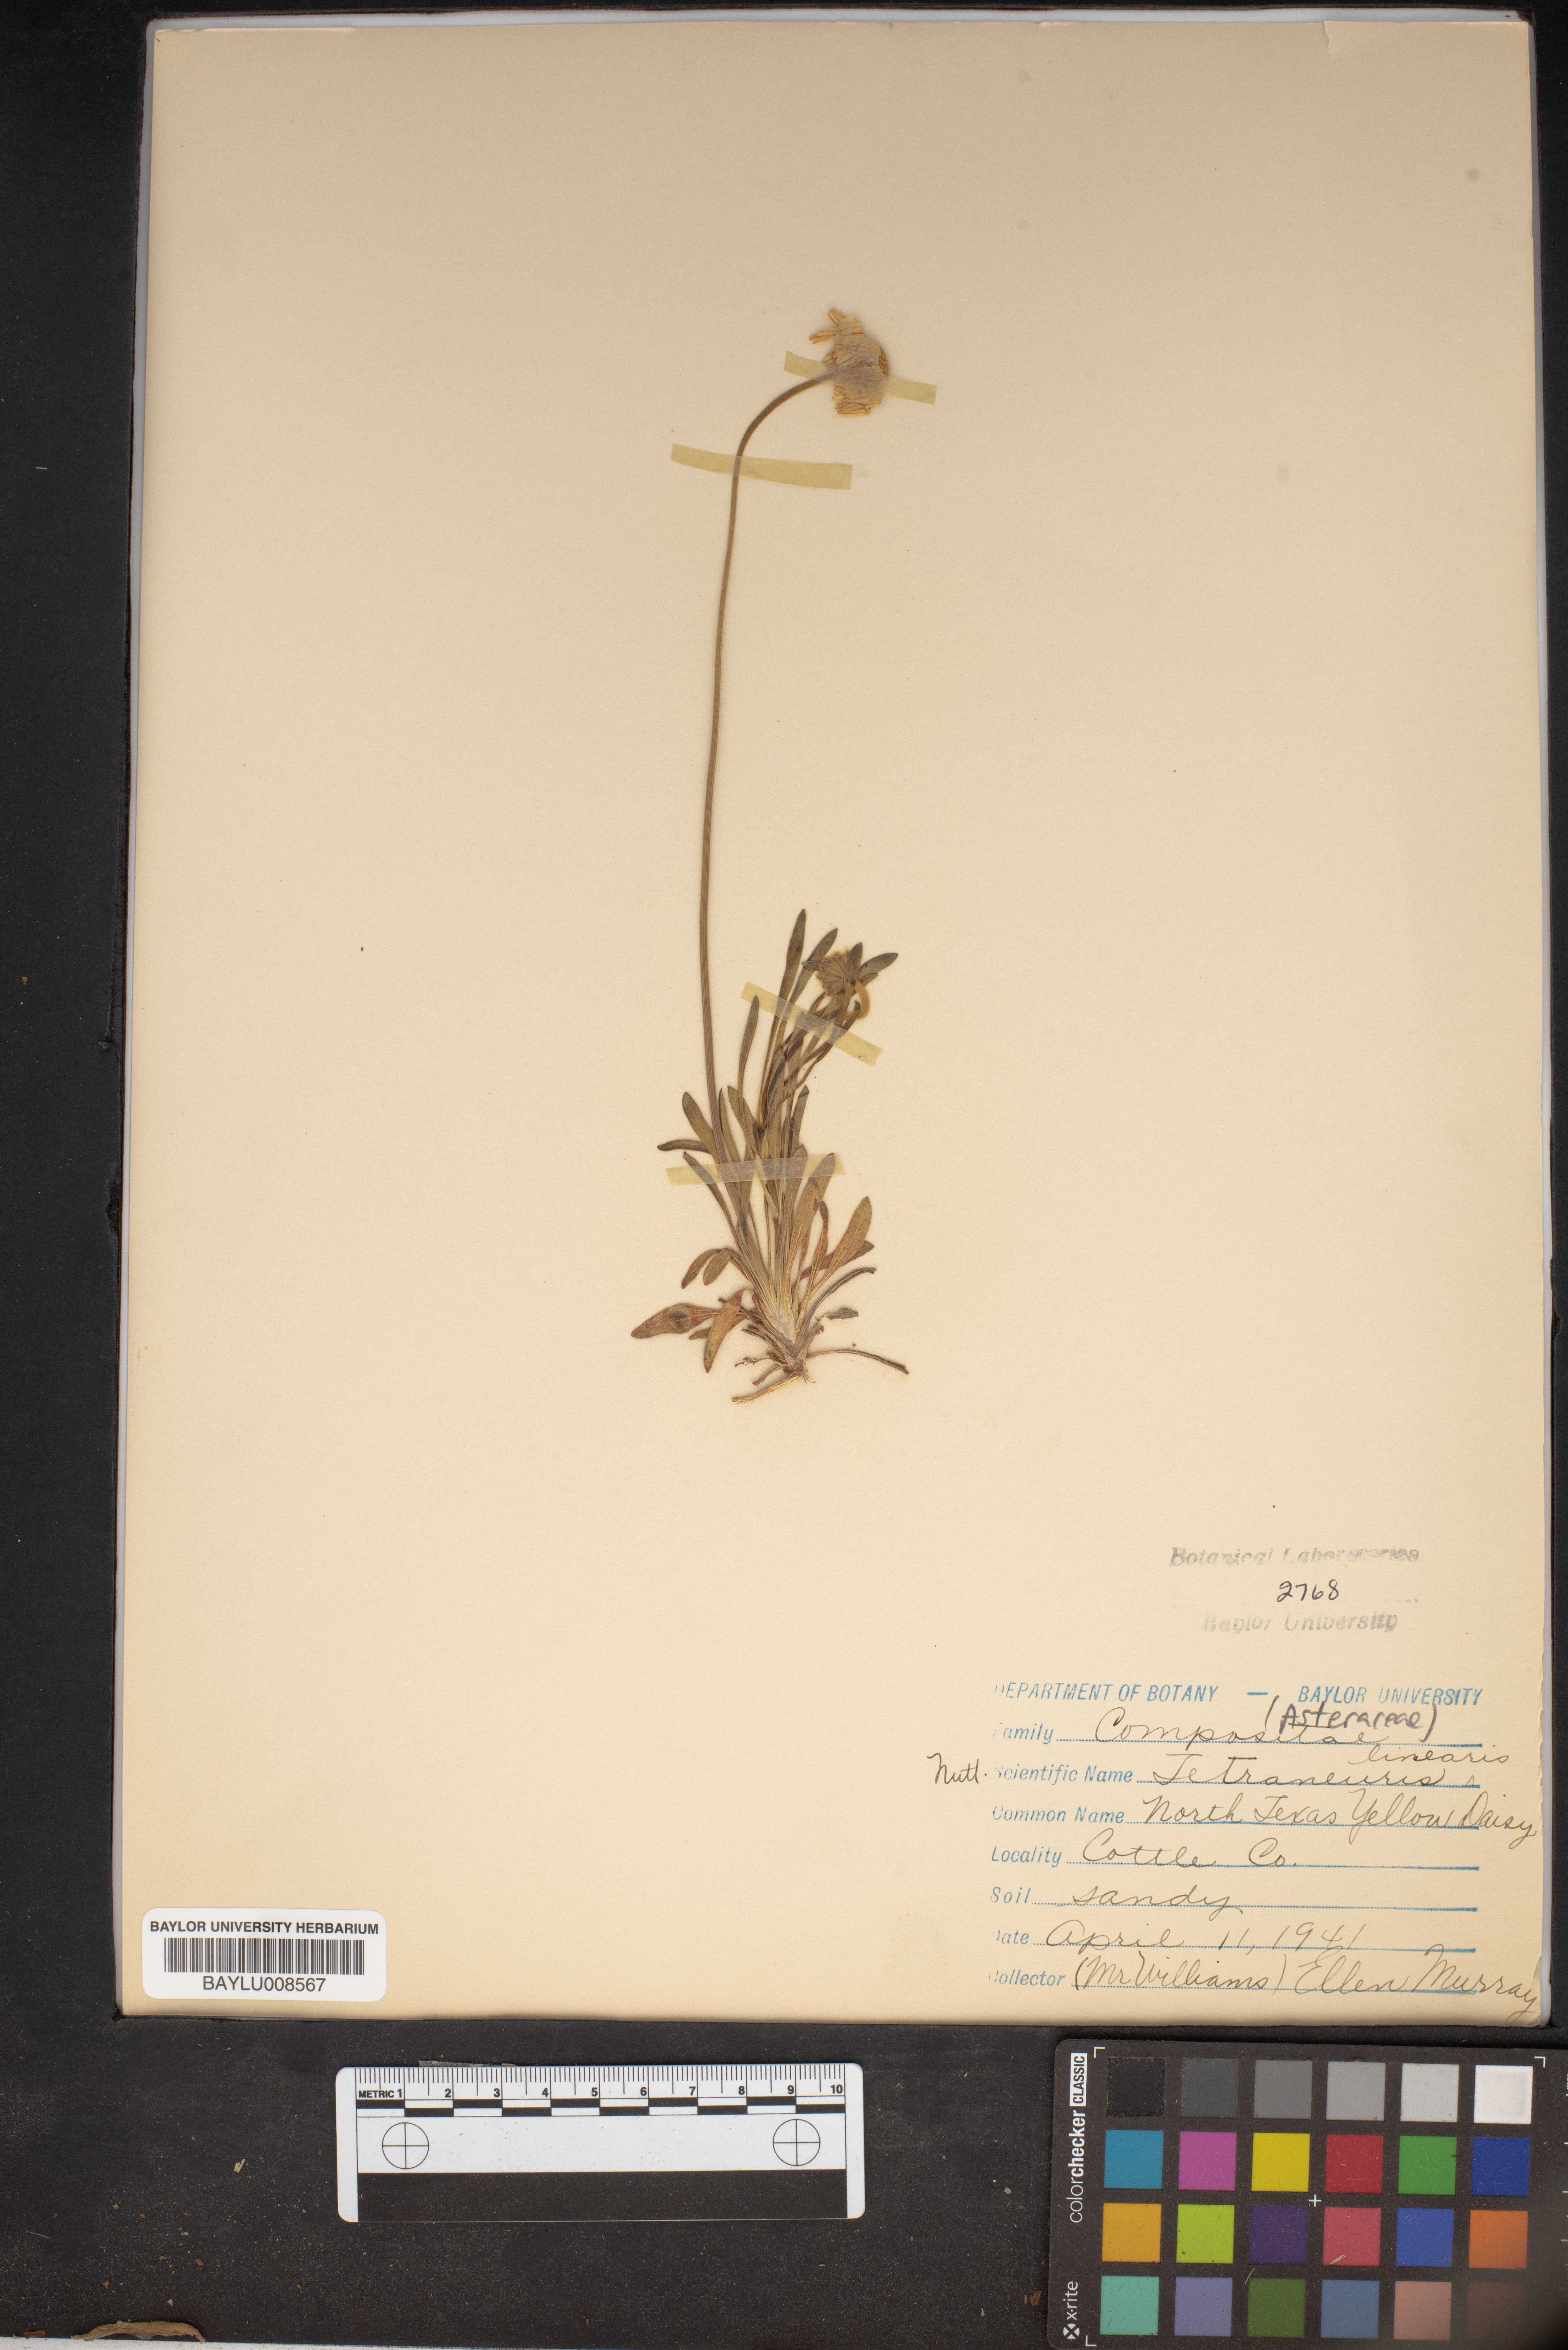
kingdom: Plantae
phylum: Tracheophyta
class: Magnoliopsida
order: Asterales
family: Asteraceae
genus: Tetraneuris
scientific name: Tetraneuris scaposa
